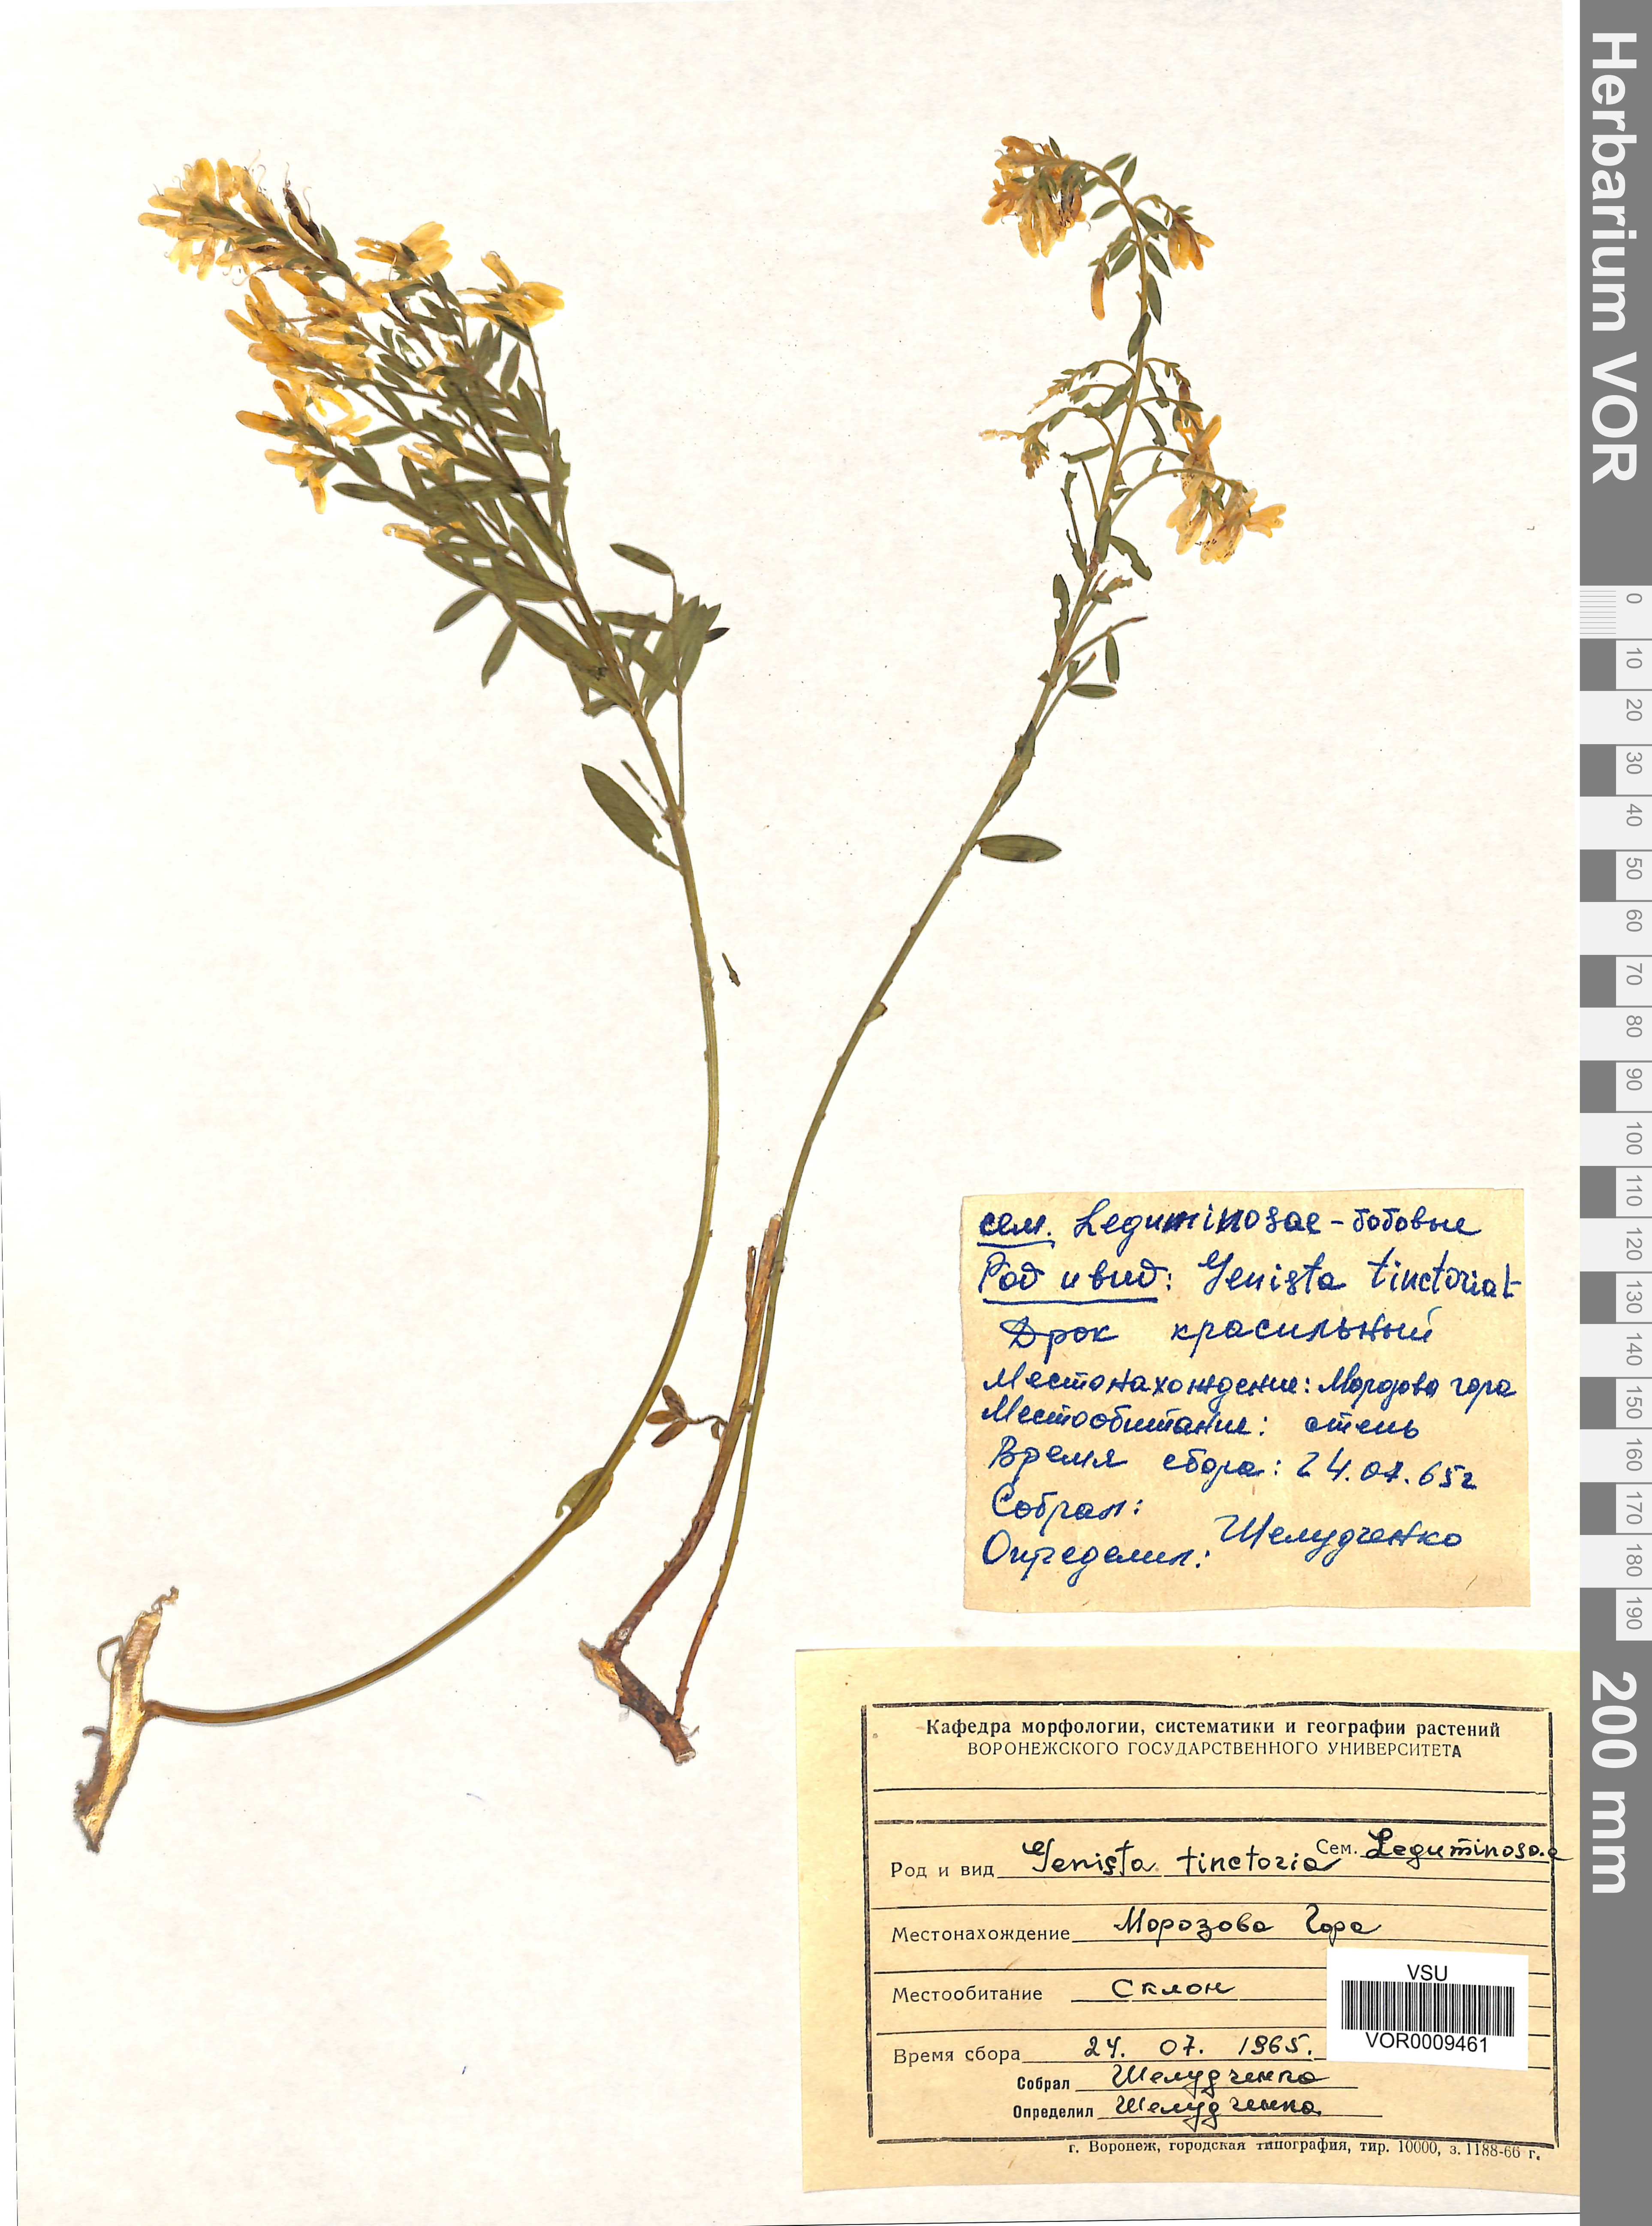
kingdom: Plantae
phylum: Tracheophyta
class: Magnoliopsida
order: Fabales
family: Fabaceae
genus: Genista
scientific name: Genista tinctoria
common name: Dyer's greenweed
